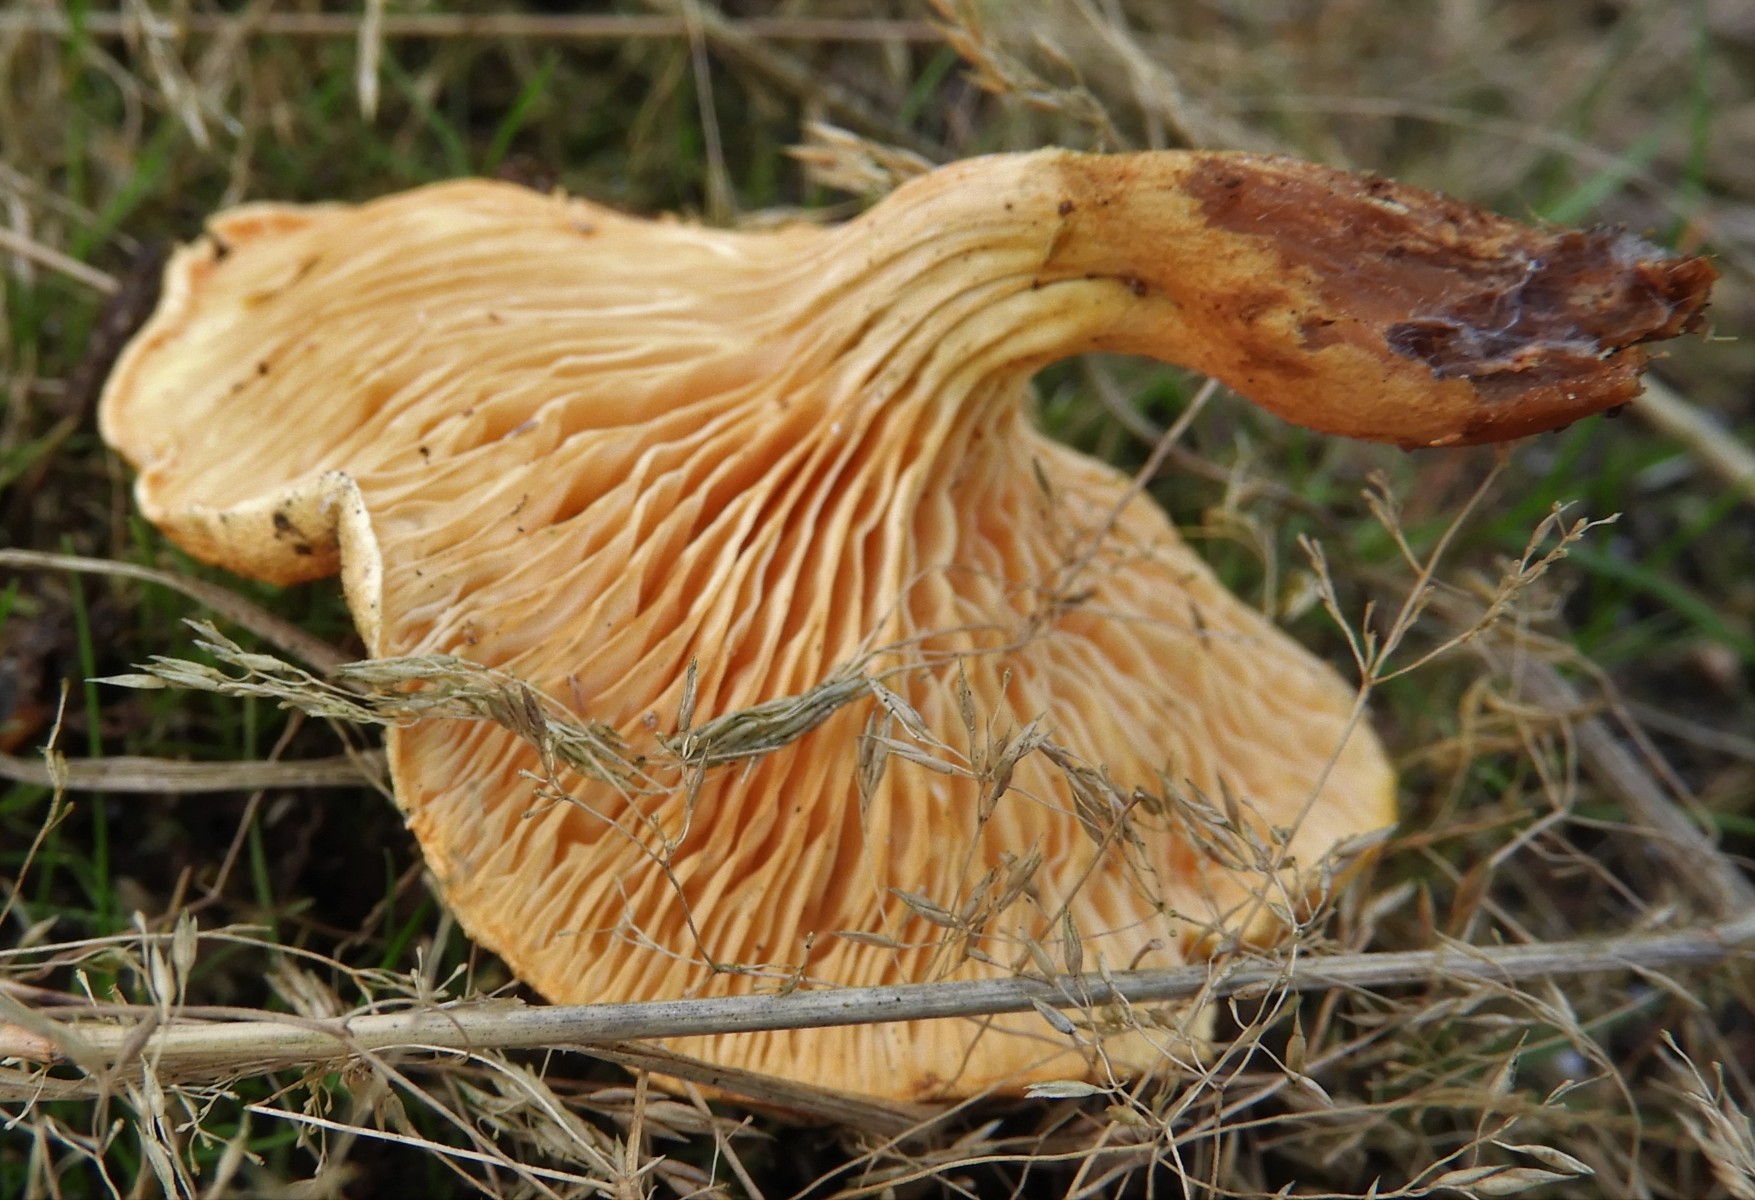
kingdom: Fungi
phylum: Basidiomycota
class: Agaricomycetes
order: Boletales
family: Hygrophoropsidaceae
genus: Hygrophoropsis
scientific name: Hygrophoropsis aurantiaca
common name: almindelig orangekantarel
